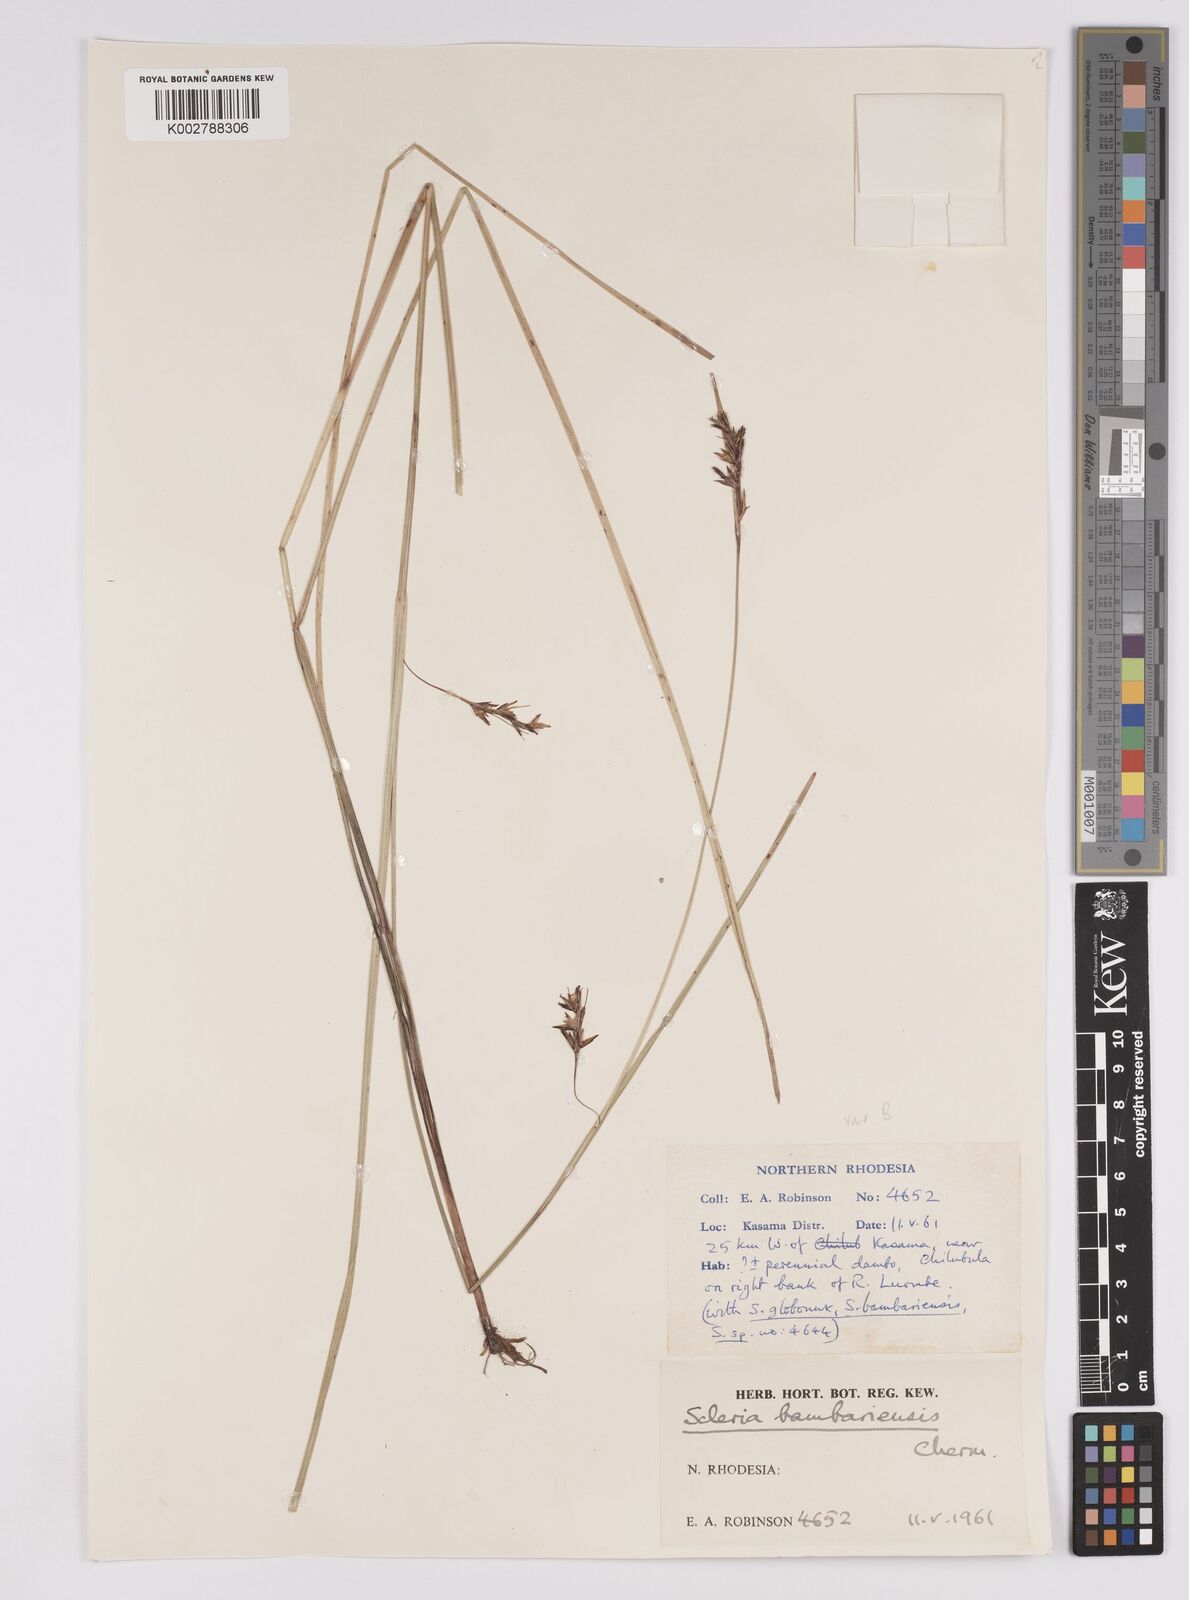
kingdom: Plantae
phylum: Tracheophyta
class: Liliopsida
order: Poales
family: Cyperaceae
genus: Scleria
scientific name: Scleria bambariensis
